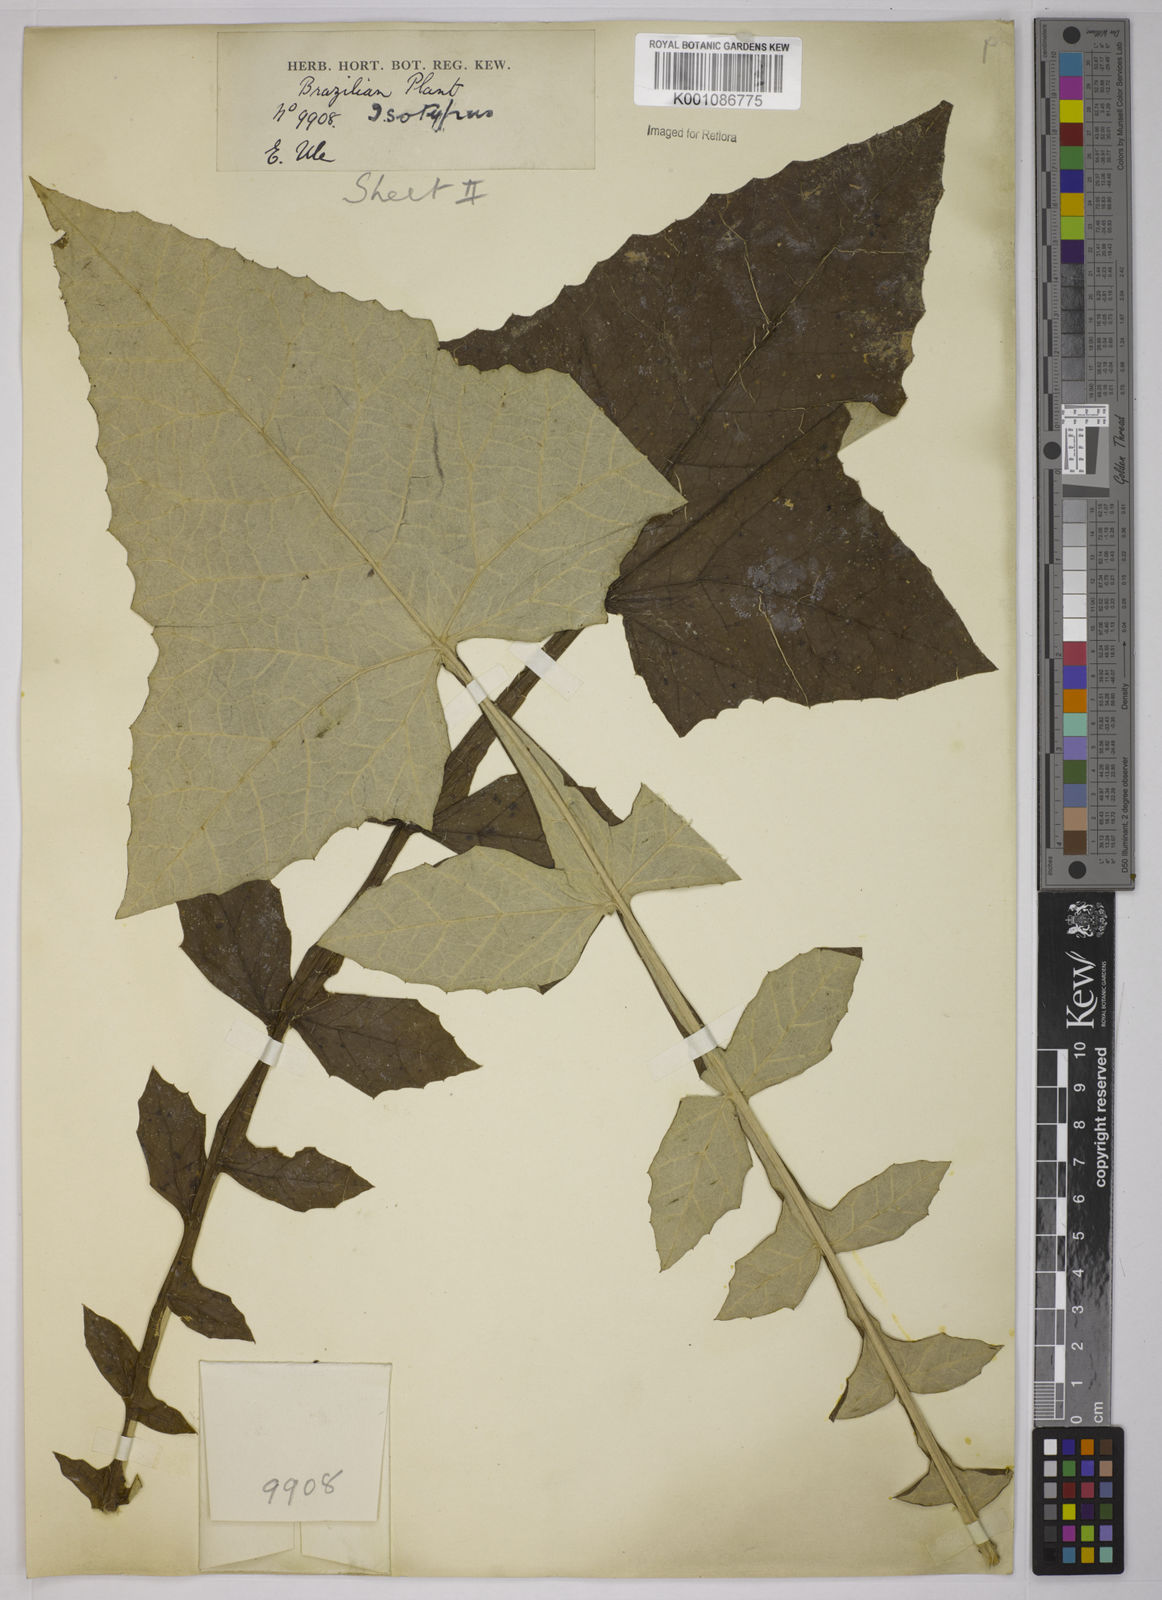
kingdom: Plantae
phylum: Tracheophyta
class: Magnoliopsida
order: Asterales
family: Asteraceae
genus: Onoseris
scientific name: Onoseris fraterna
